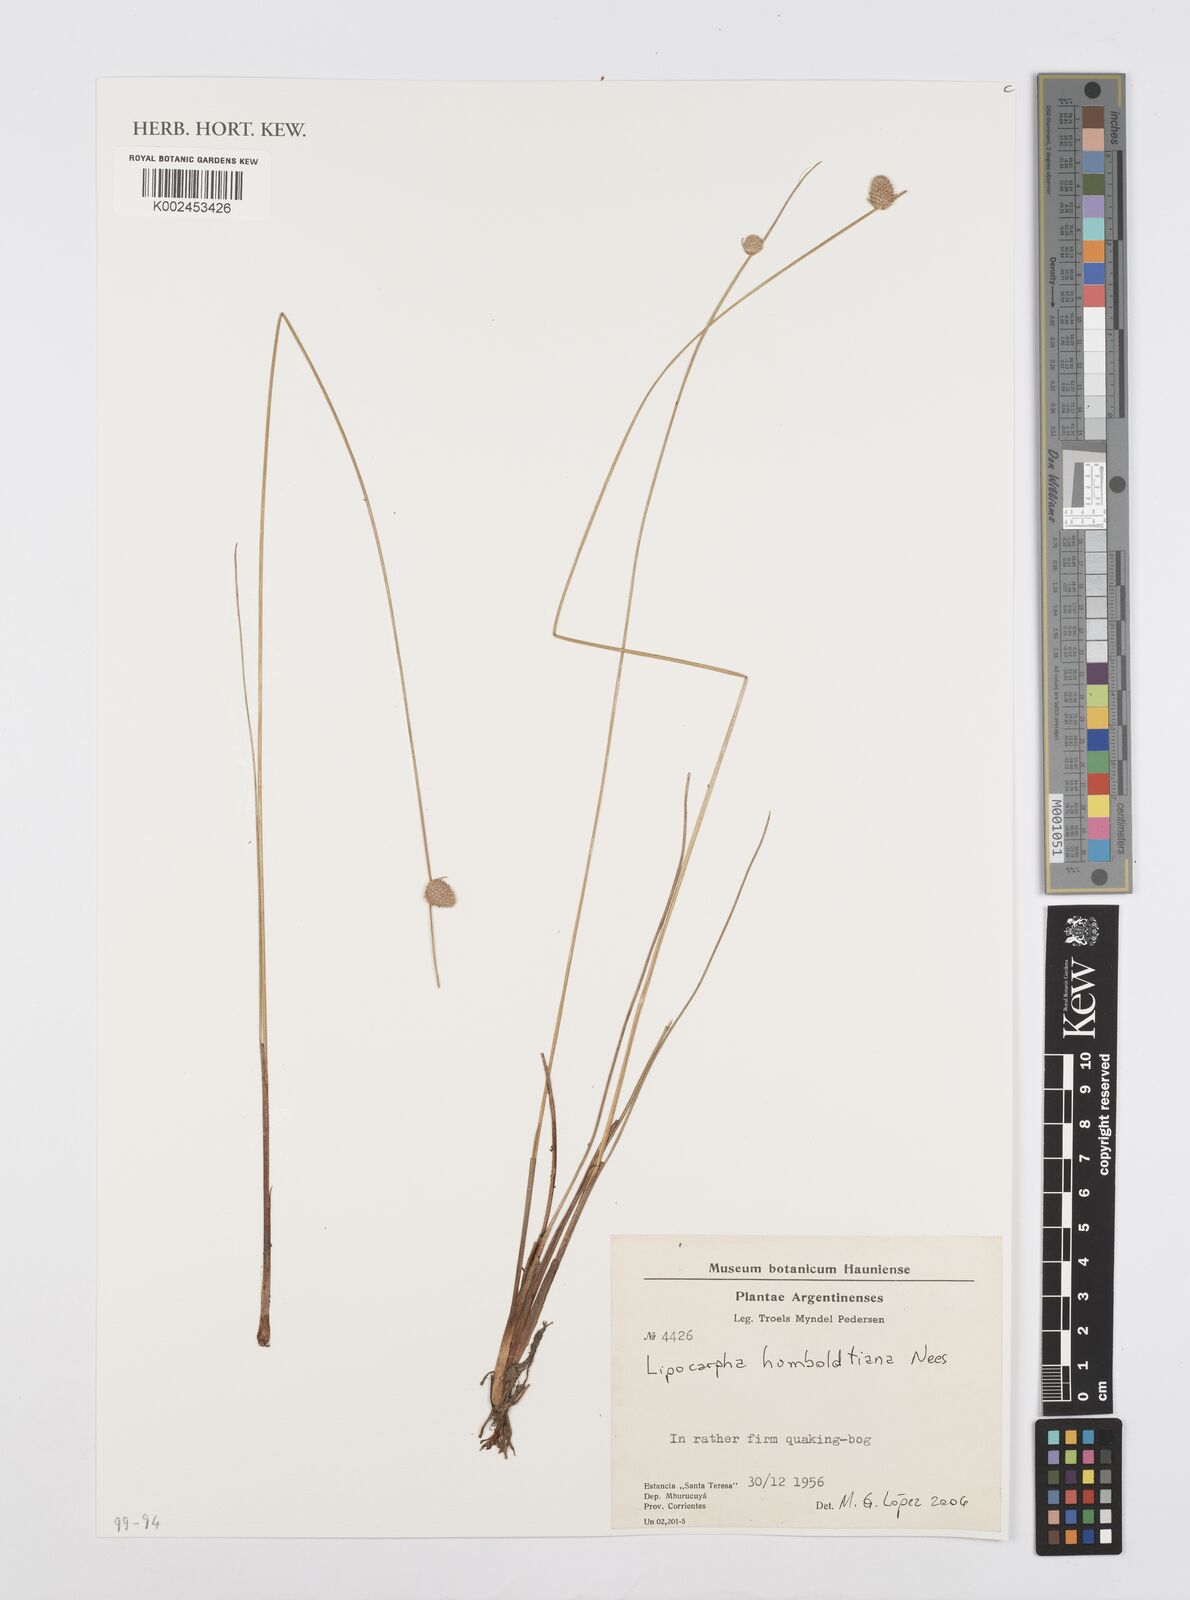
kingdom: Plantae
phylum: Tracheophyta
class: Liliopsida
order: Poales
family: Cyperaceae
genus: Cyperus
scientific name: Cyperus lanceolatus
